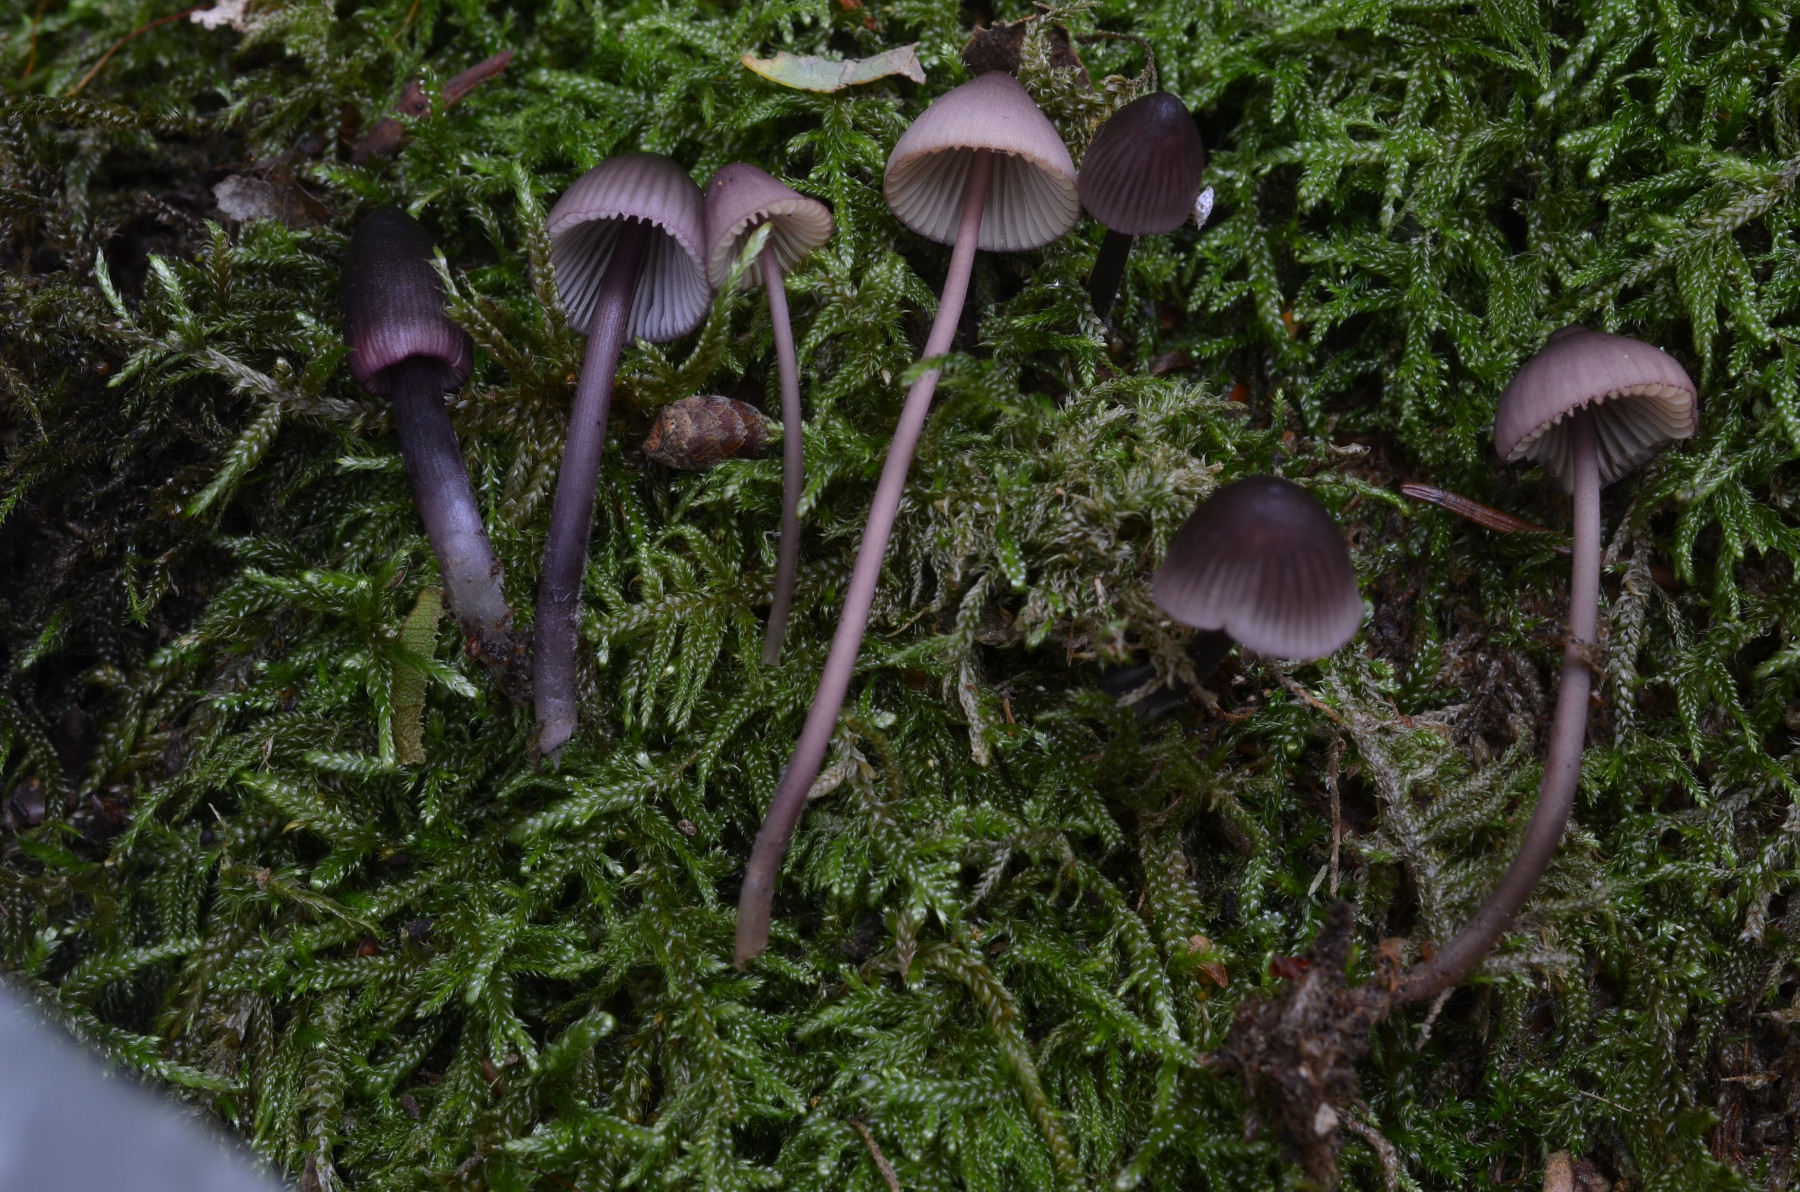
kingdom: Fungi
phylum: Basidiomycota
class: Agaricomycetes
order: Agaricales
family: Mycenaceae
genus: Mycena
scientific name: Mycena purpureofusca
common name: purpur-huesvamp
